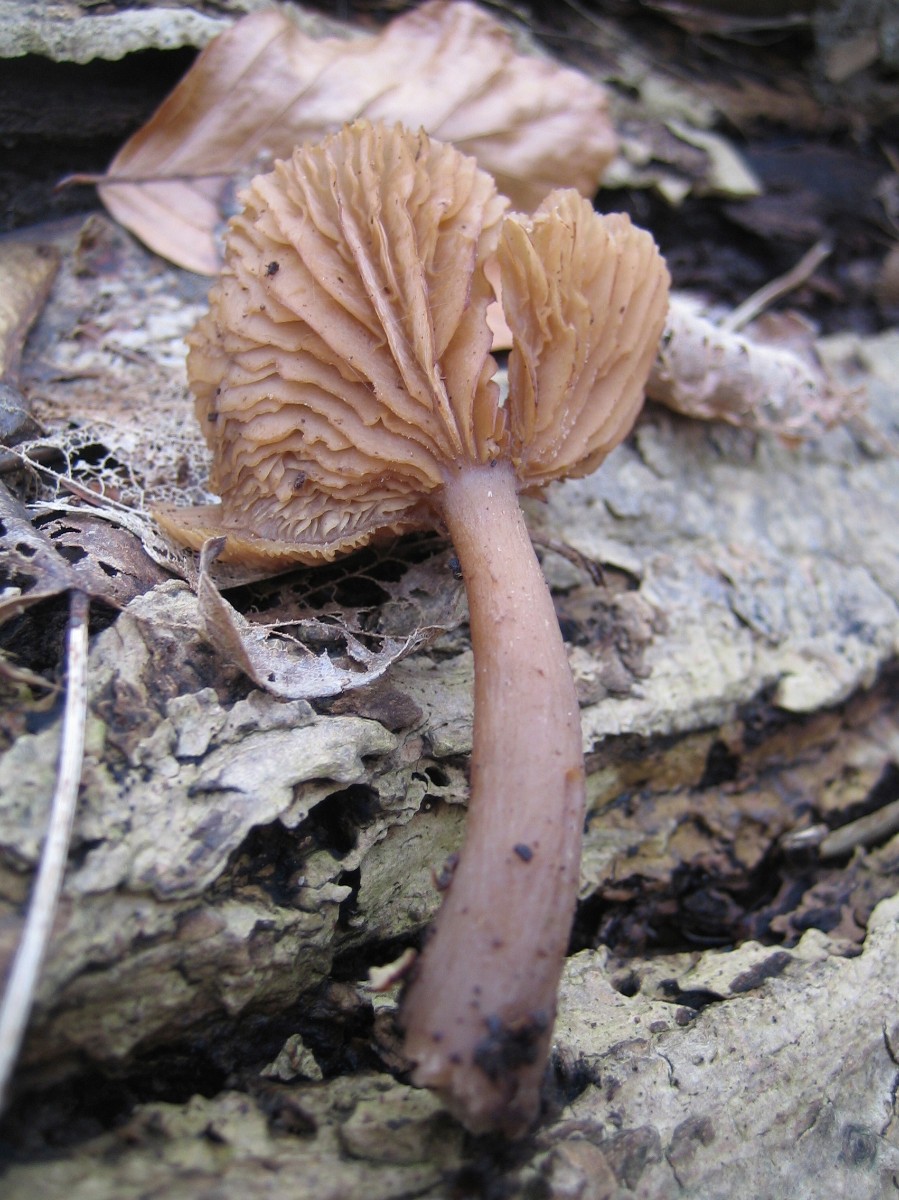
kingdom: Fungi
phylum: Basidiomycota
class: Agaricomycetes
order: Agaricales
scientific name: Agaricales
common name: champignonordenen
